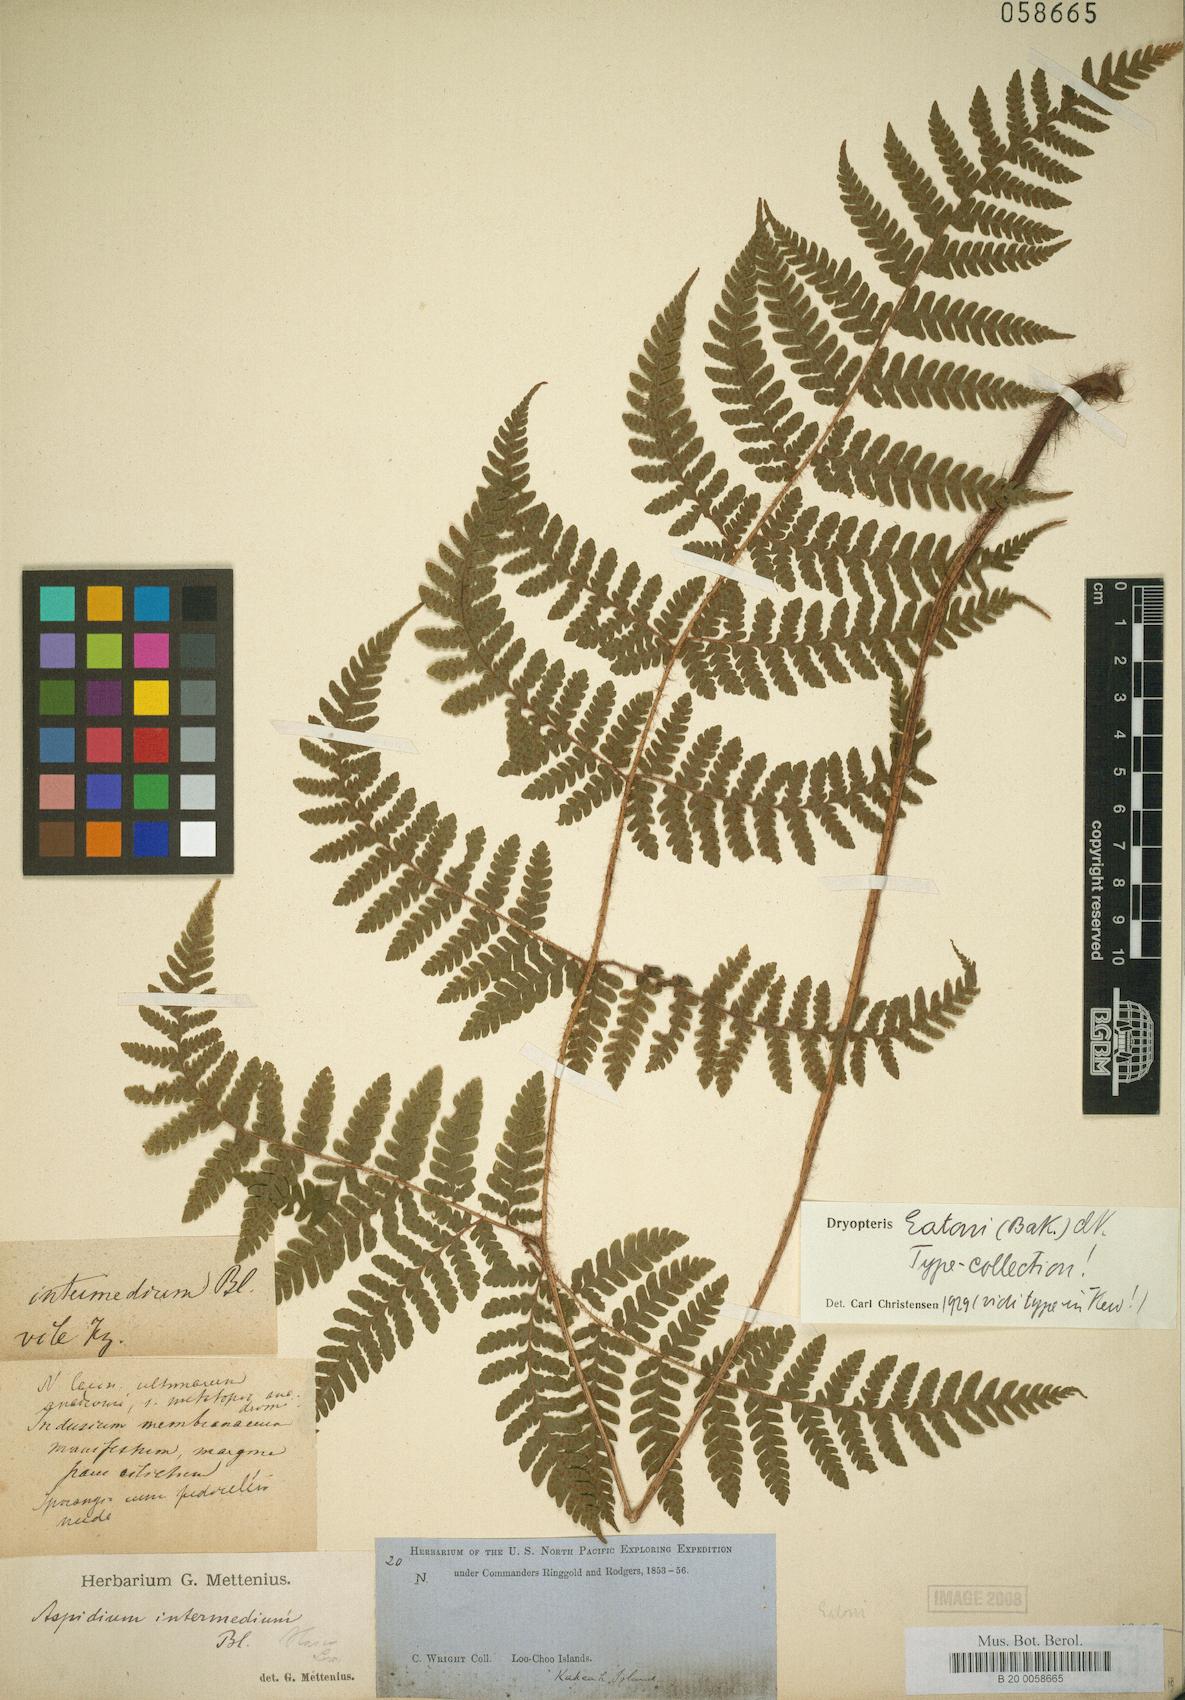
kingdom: Plantae
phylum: Tracheophyta
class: Polypodiopsida
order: Polypodiales
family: Dryopteridaceae
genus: Ctenitis
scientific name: Ctenitis subglandulosa
